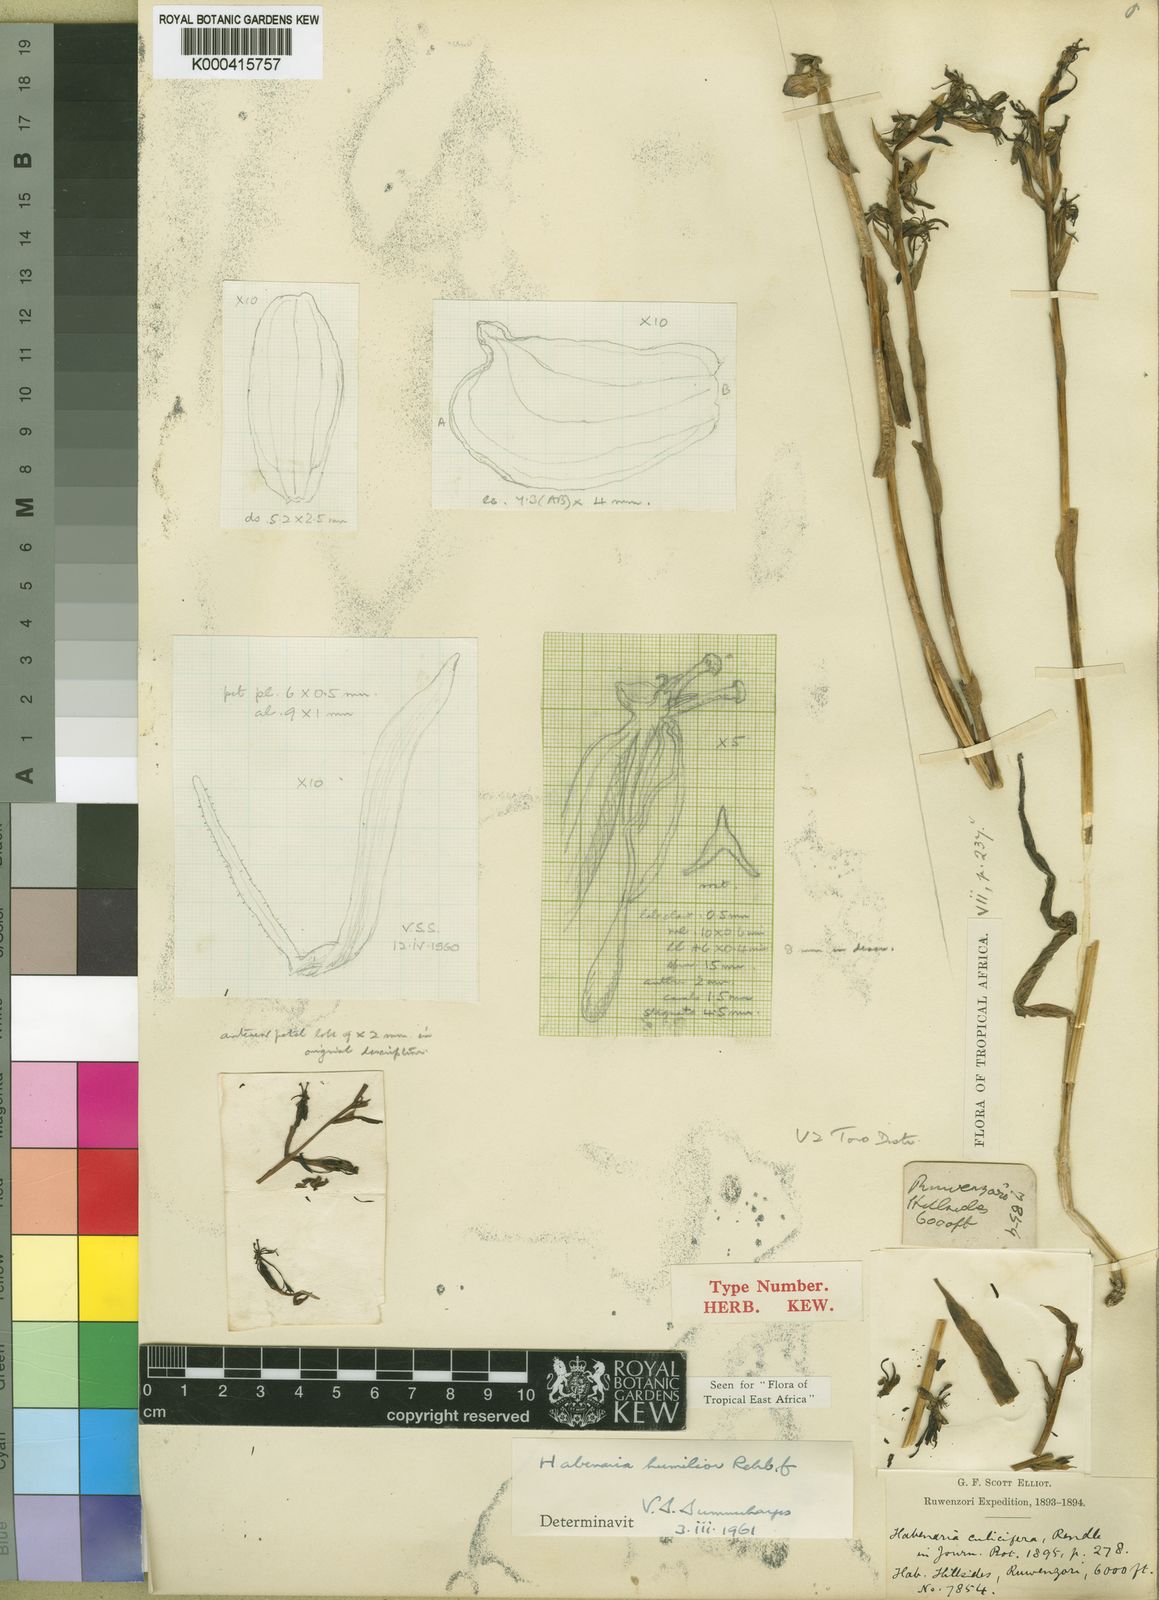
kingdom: Plantae
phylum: Tracheophyta
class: Liliopsida
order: Asparagales
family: Orchidaceae
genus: Habenaria
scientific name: Habenaria humilior
